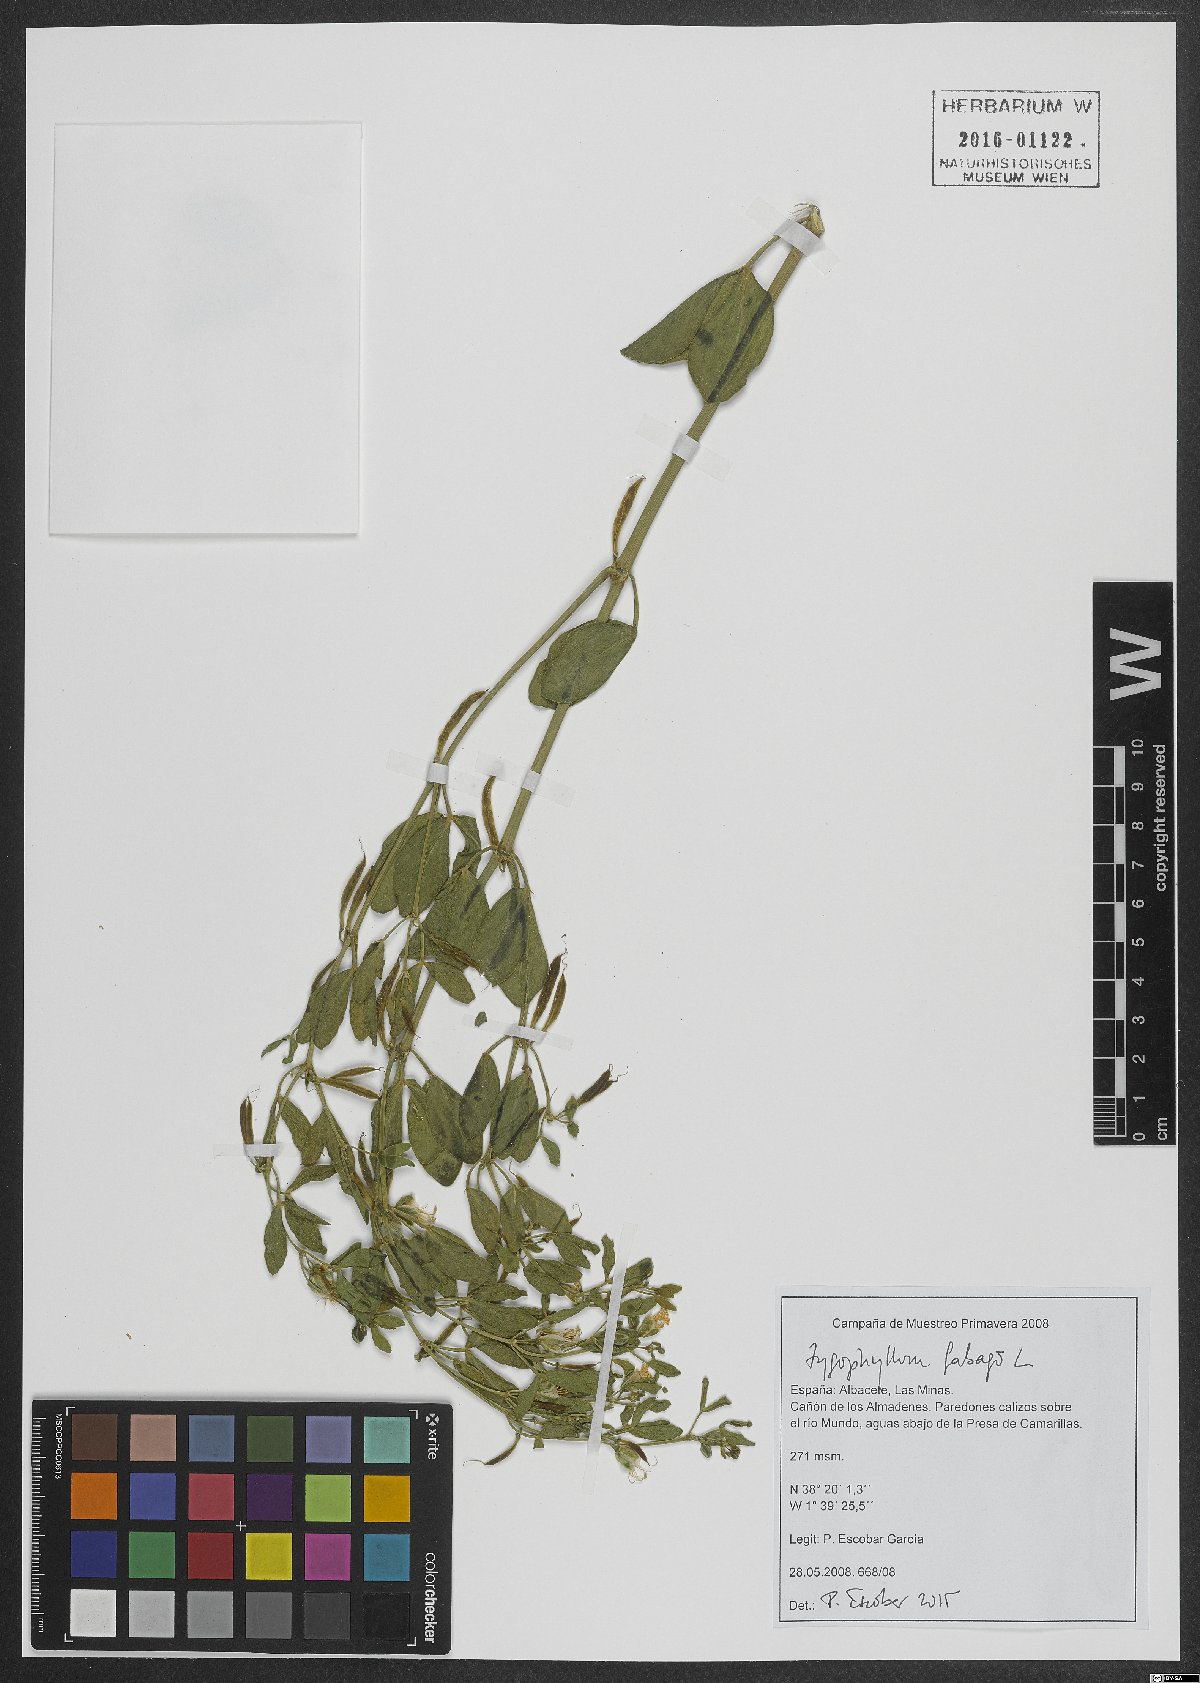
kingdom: Plantae
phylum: Tracheophyta
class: Magnoliopsida
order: Zygophyllales
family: Zygophyllaceae
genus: Zygophyllum
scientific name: Zygophyllum fabago
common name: Syrian beancaper
